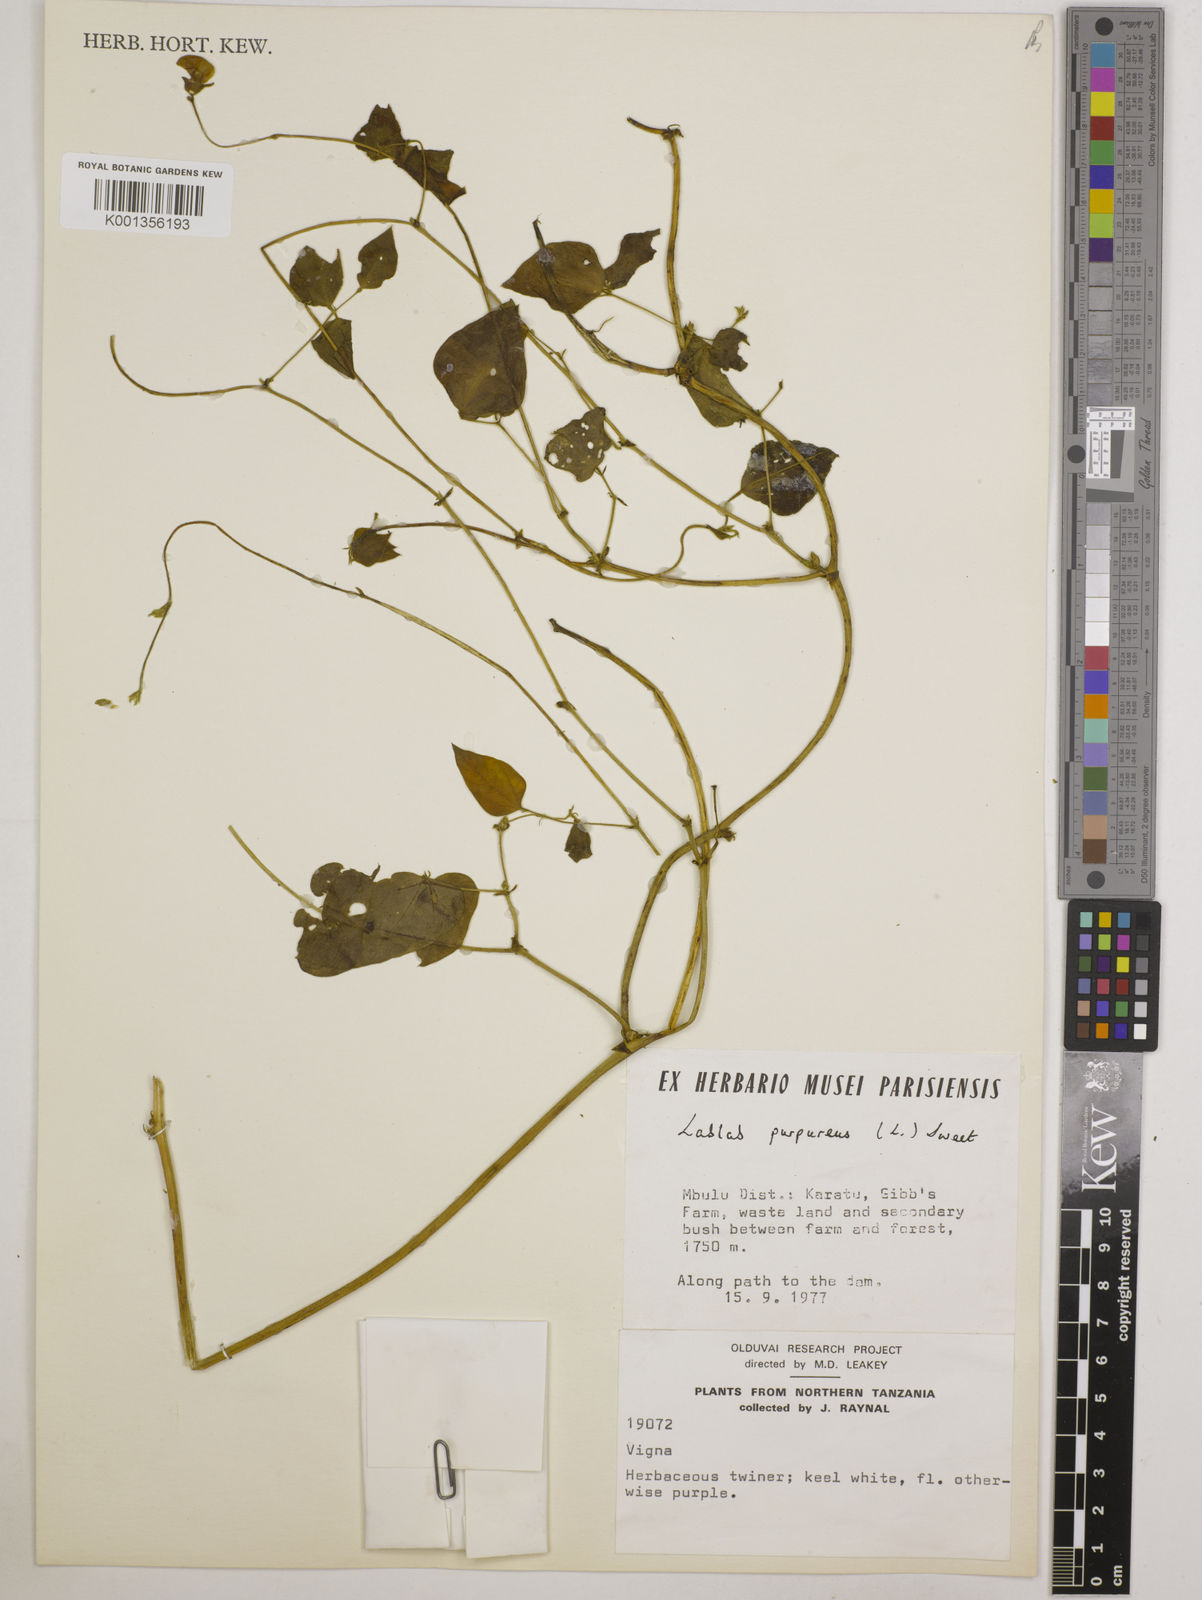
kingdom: Plantae
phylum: Tracheophyta
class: Magnoliopsida
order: Fabales
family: Fabaceae
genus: Lablab
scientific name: Lablab purpureus
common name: Lablab-bean
